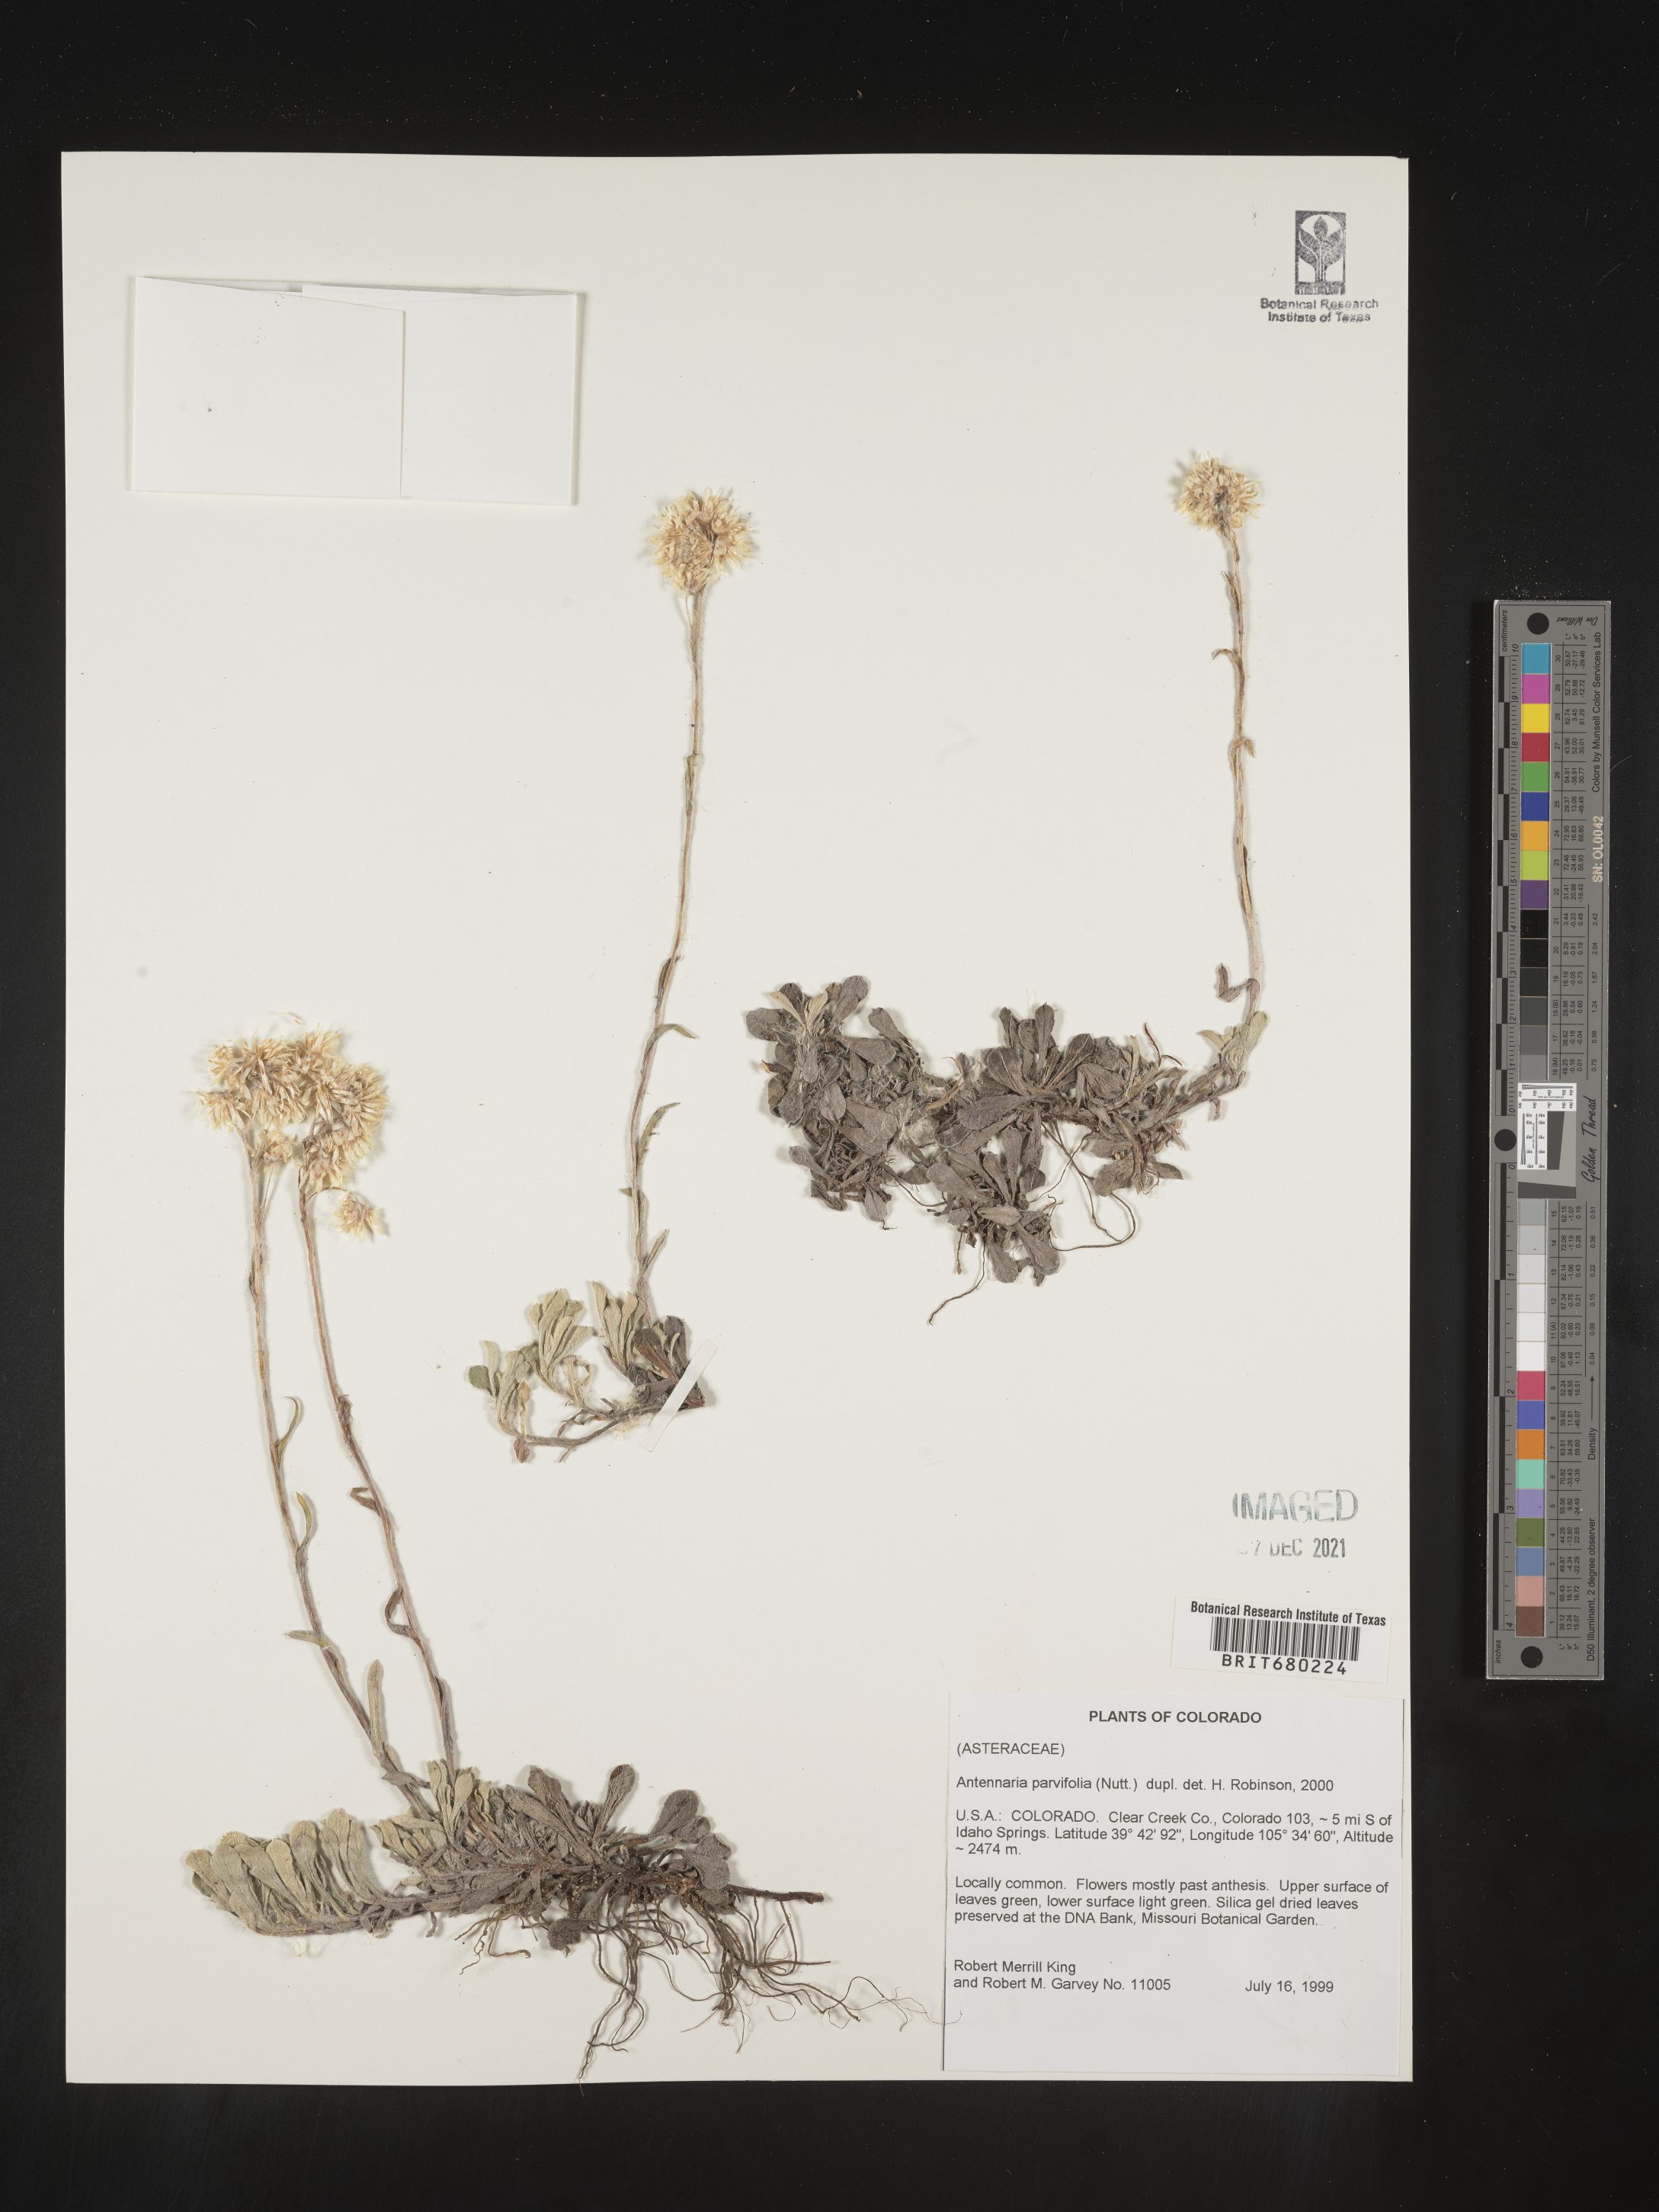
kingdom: Plantae
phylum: Tracheophyta
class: Magnoliopsida
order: Asterales
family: Asteraceae
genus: Antennaria
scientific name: Antennaria plantaginifolia
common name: Plantain-leaved pussytoes
